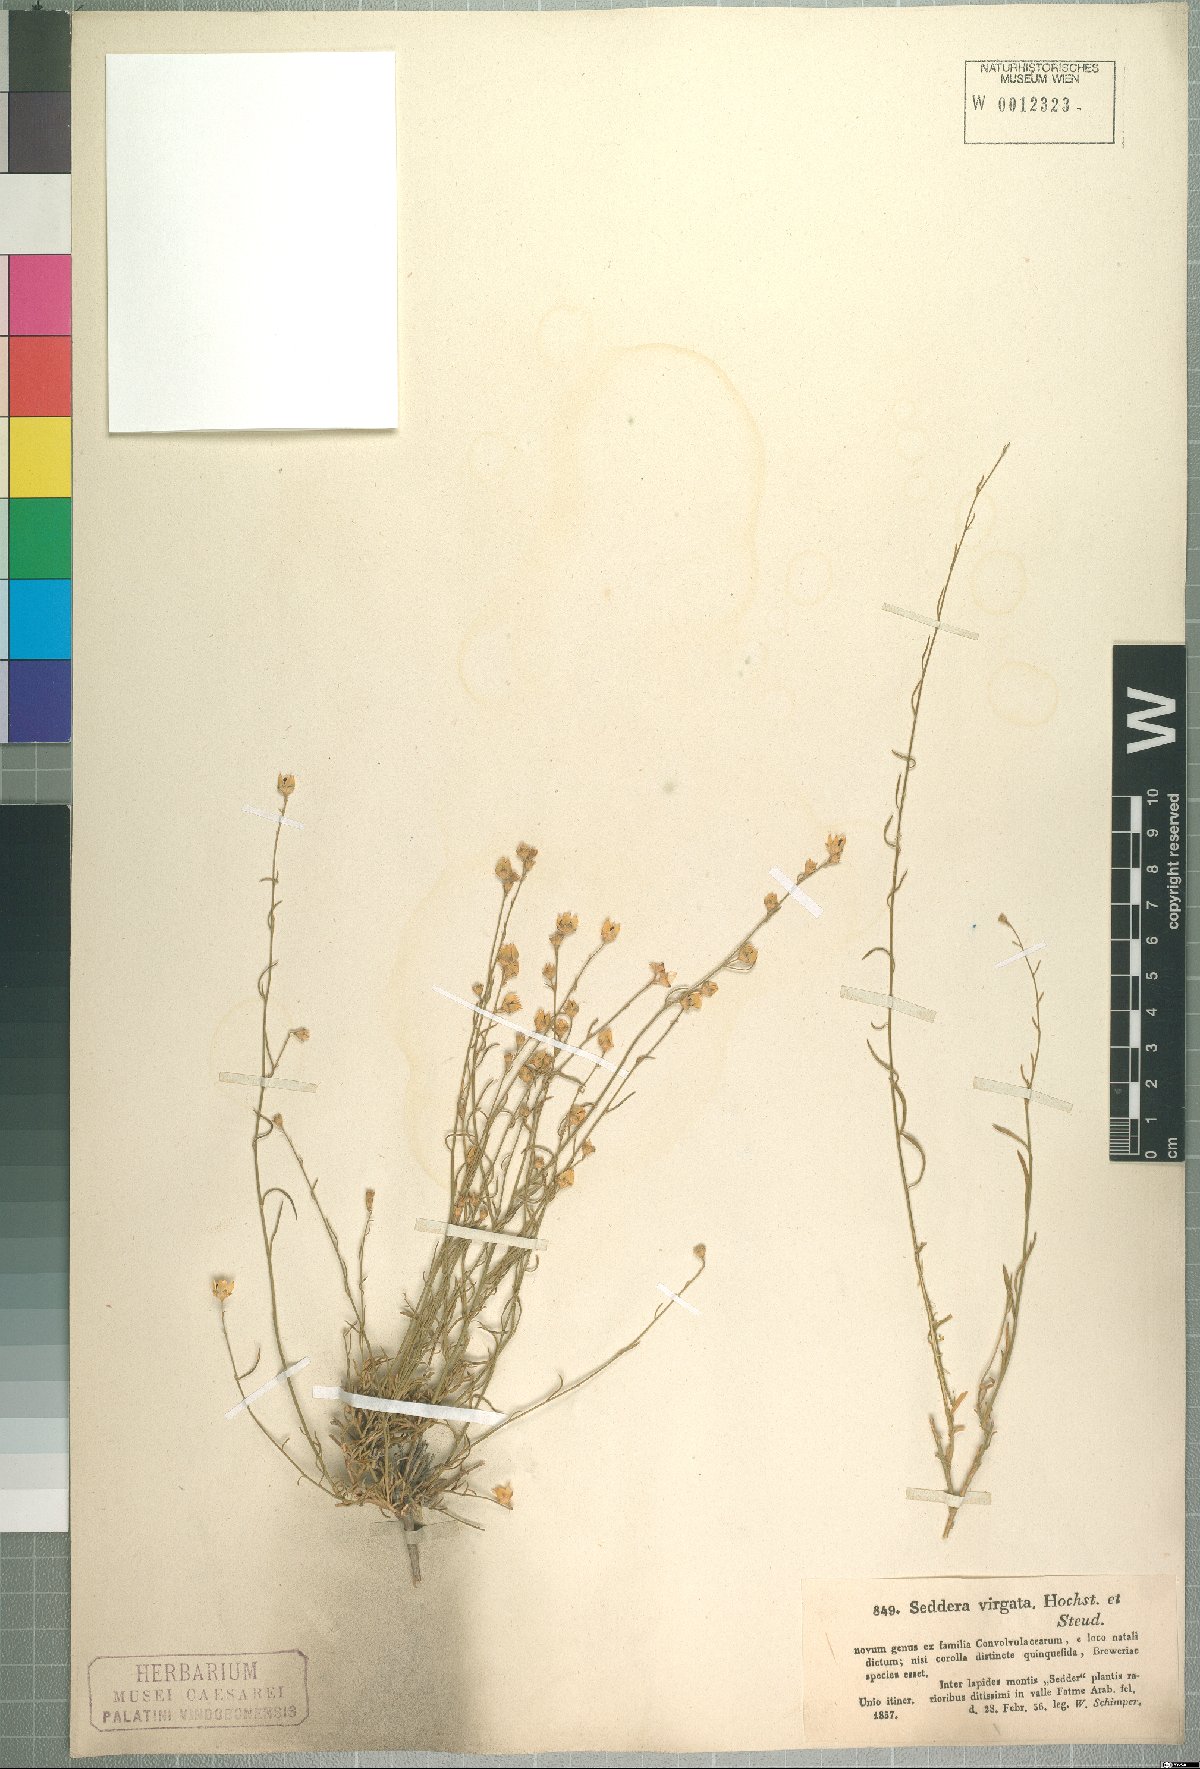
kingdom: Plantae
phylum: Tracheophyta
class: Magnoliopsida
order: Solanales
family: Convolvulaceae
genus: Seddera
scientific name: Seddera virgata
